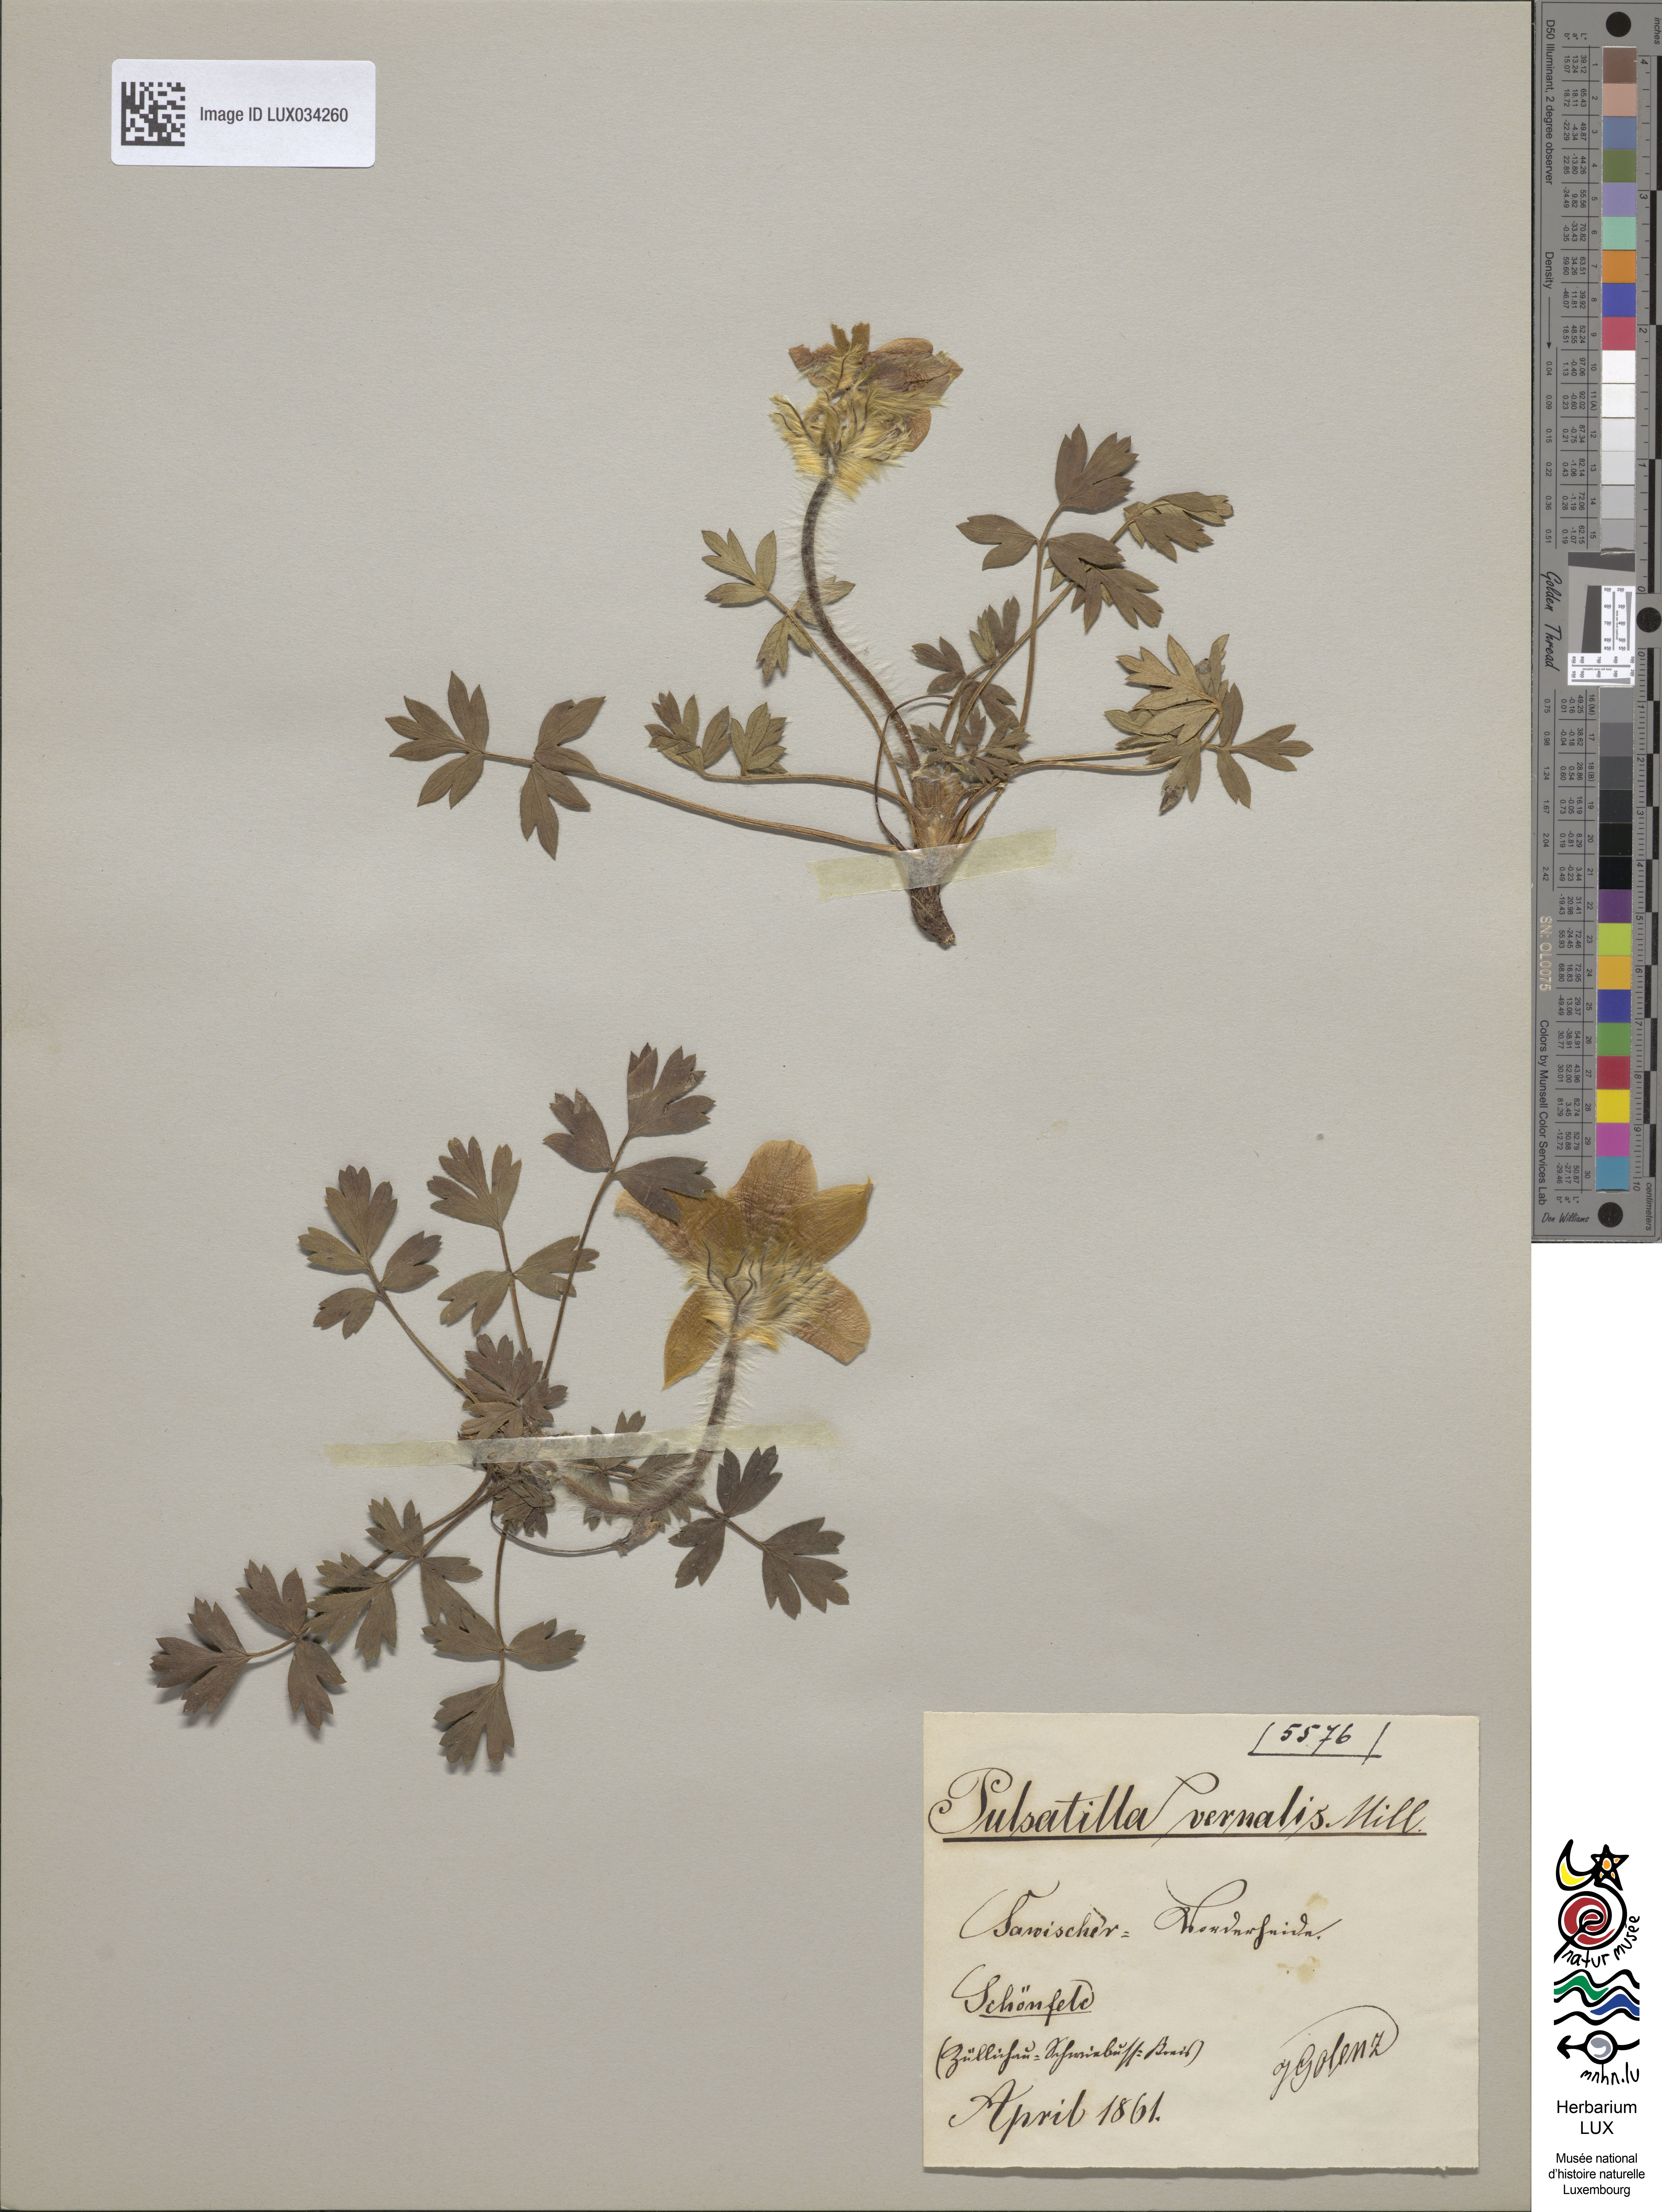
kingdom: Plantae
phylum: Tracheophyta
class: Magnoliopsida
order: Ranunculales
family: Ranunculaceae
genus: Pulsatilla
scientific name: Pulsatilla vernalis
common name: Spring pasque flower
